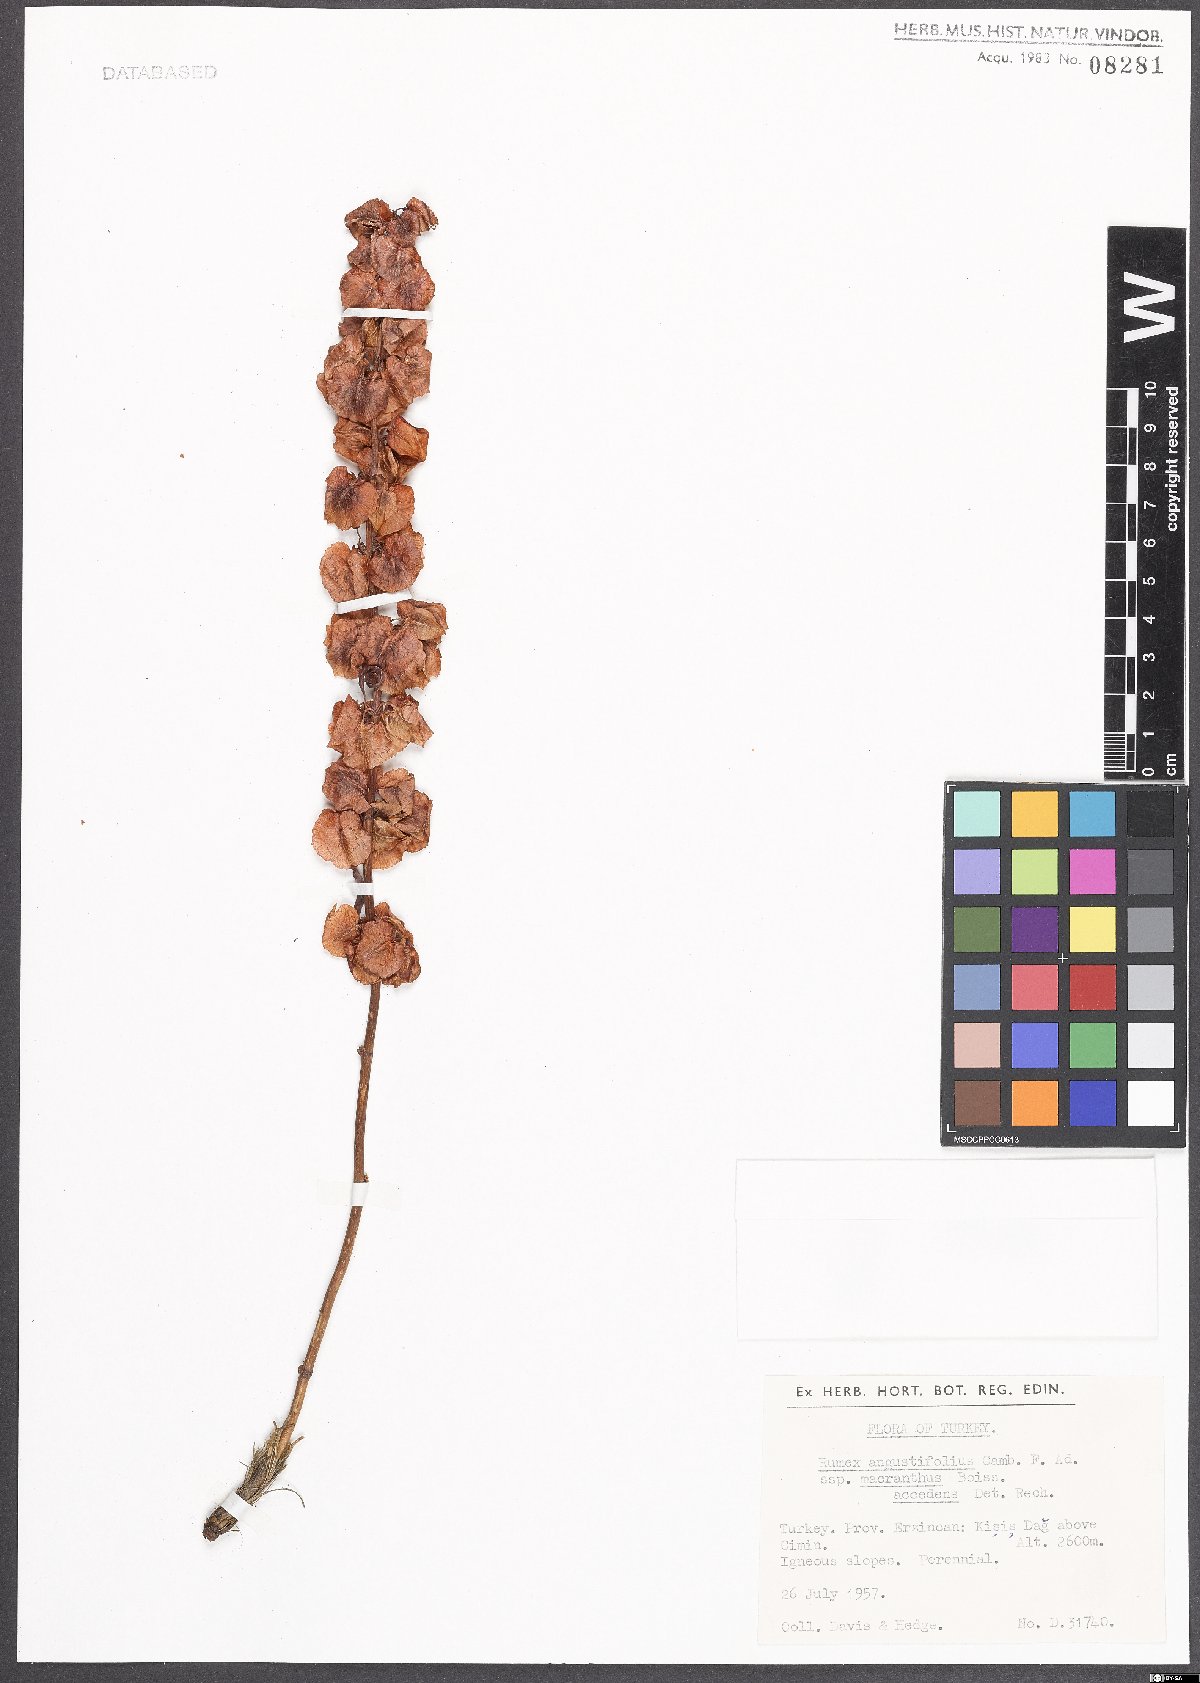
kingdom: Plantae
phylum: Tracheophyta
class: Magnoliopsida
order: Caryophyllales
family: Polygonaceae
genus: Rumex
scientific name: Rumex angustifolius
